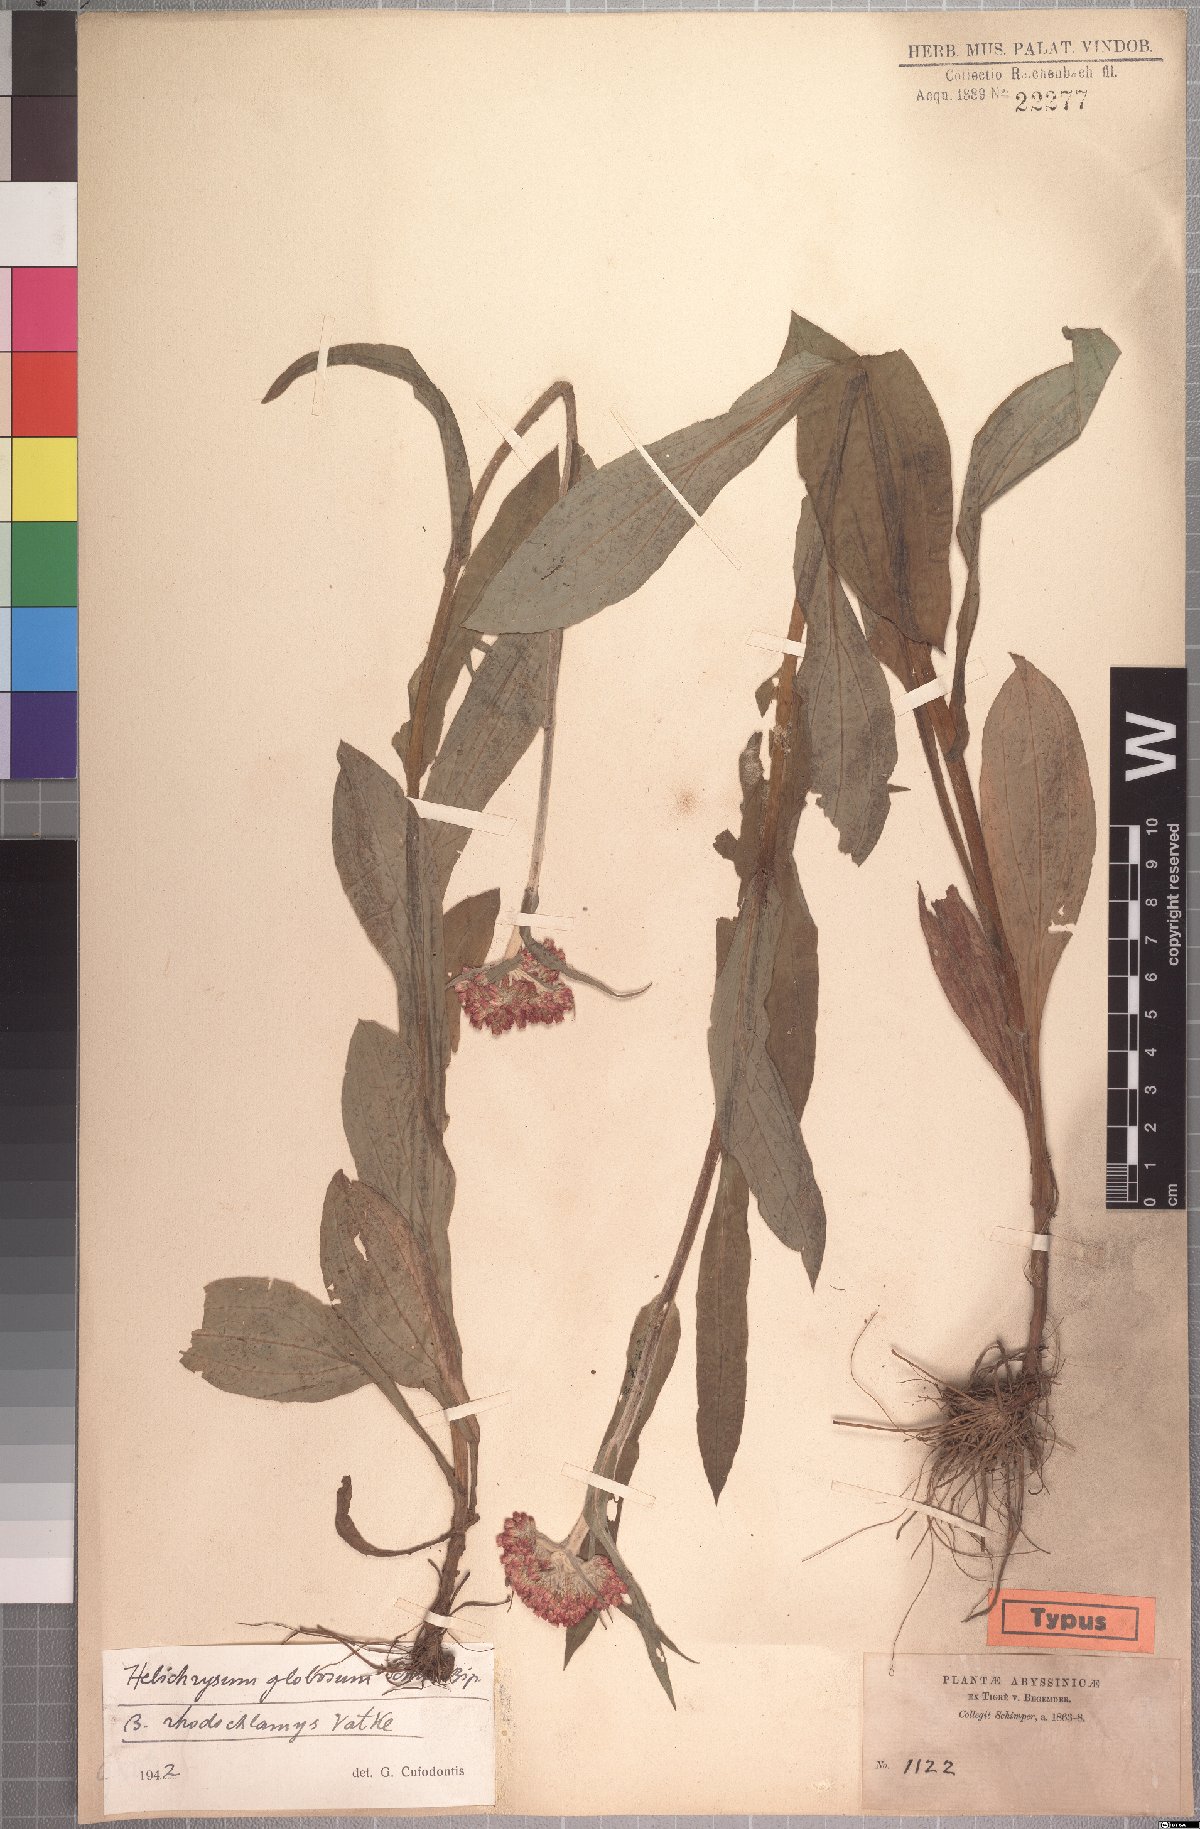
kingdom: Plantae
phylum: Tracheophyta
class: Magnoliopsida
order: Asterales
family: Asteraceae
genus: Helichrysum
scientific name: Helichrysum globosum
